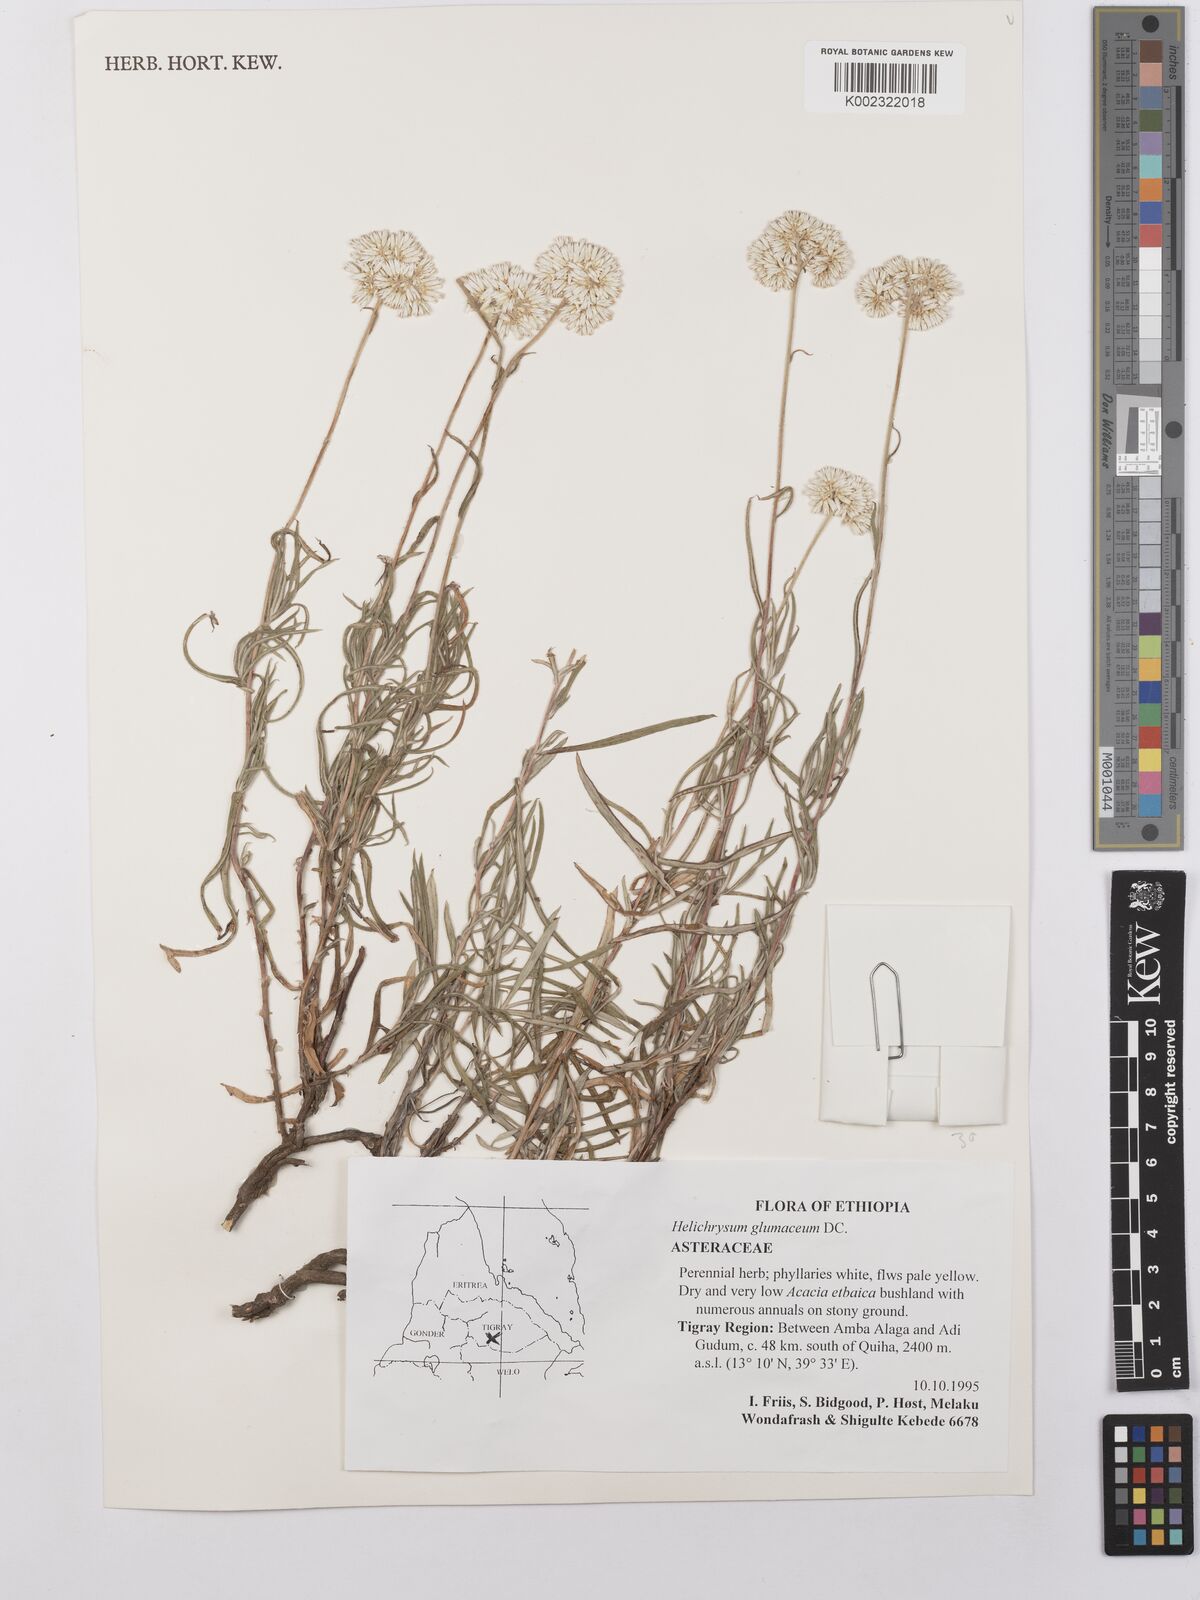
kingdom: Plantae
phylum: Tracheophyta
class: Magnoliopsida
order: Asterales
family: Asteraceae
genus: Helichrysum
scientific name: Helichrysum glumaceum
